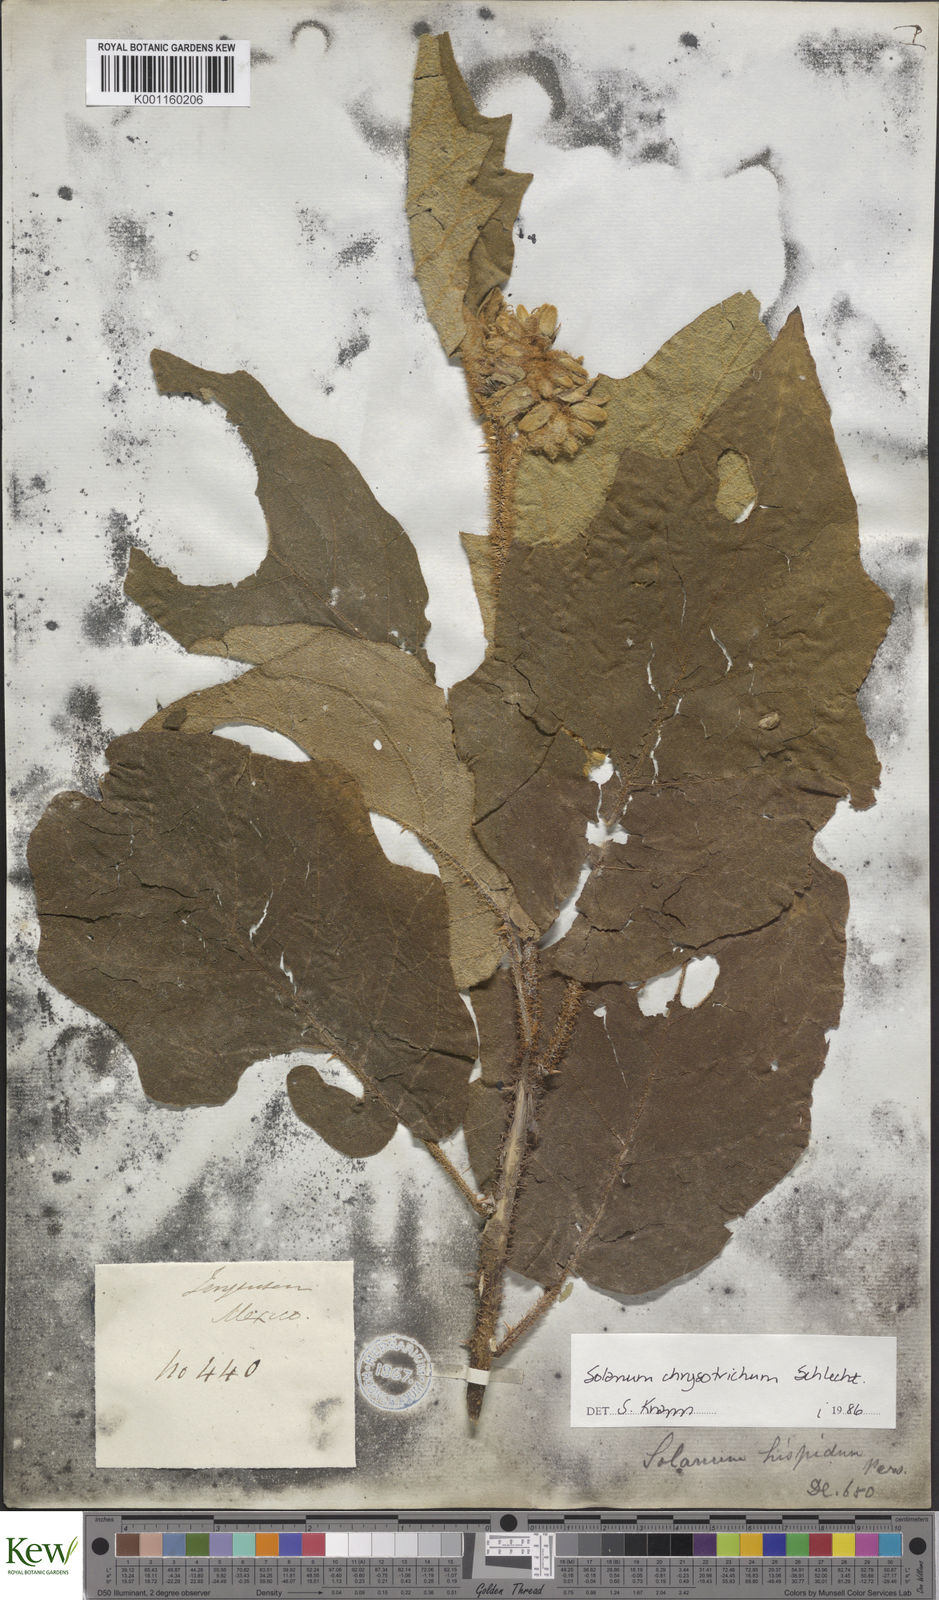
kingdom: Plantae
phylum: Tracheophyta
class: Magnoliopsida
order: Solanales
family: Solanaceae
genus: Solanum
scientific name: Solanum chrysotrichum
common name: Nightshade
